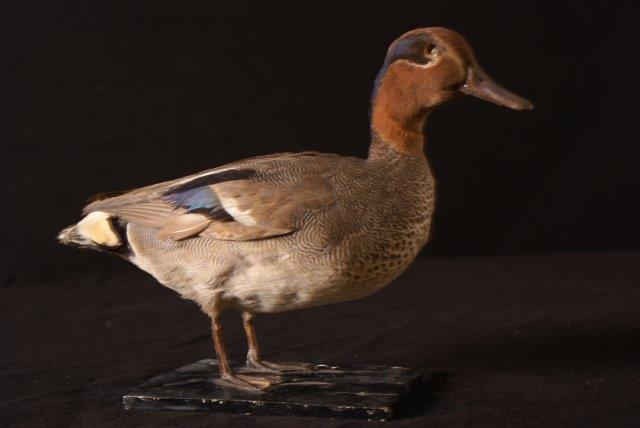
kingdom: Animalia
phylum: Chordata
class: Aves
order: Anseriformes
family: Anatidae
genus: Anas
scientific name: Anas crecca
